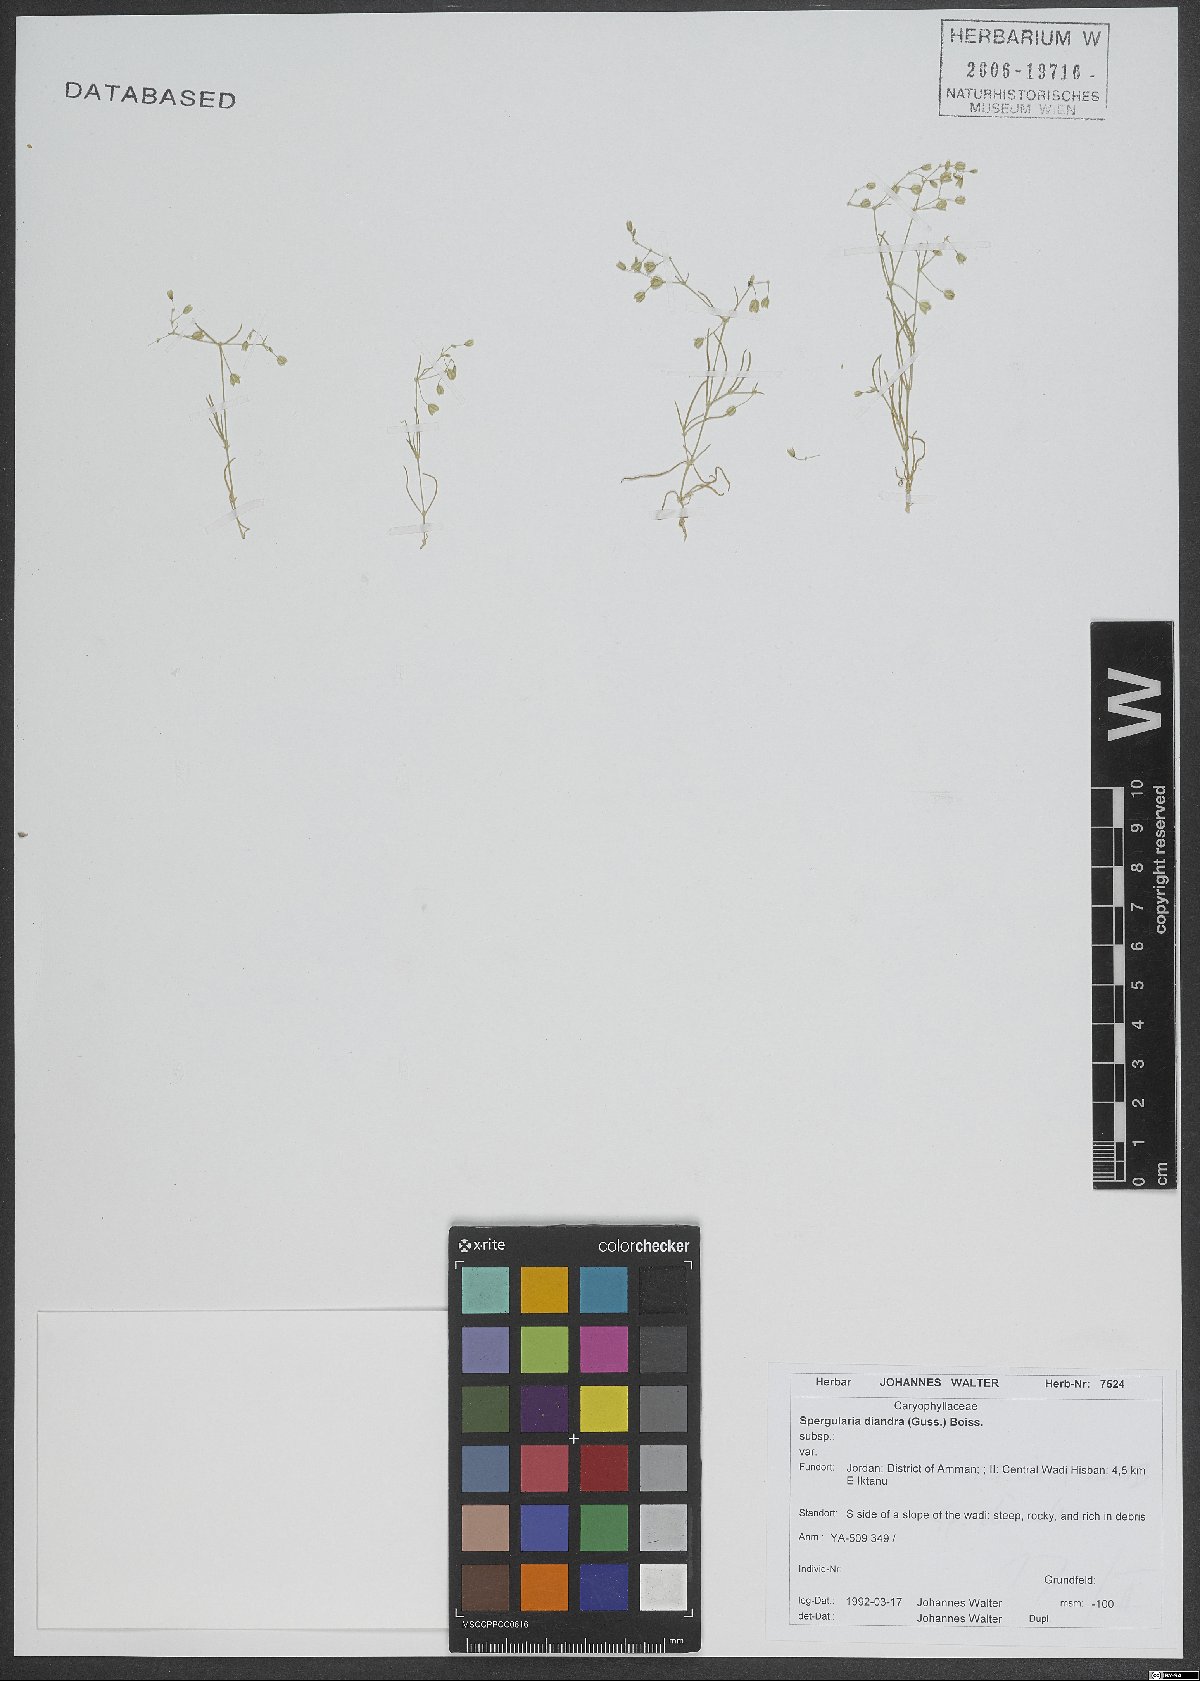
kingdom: Plantae
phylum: Tracheophyta
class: Magnoliopsida
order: Caryophyllales
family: Caryophyllaceae
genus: Spergularia
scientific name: Spergularia diandra
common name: Alkali sand-spurrey
